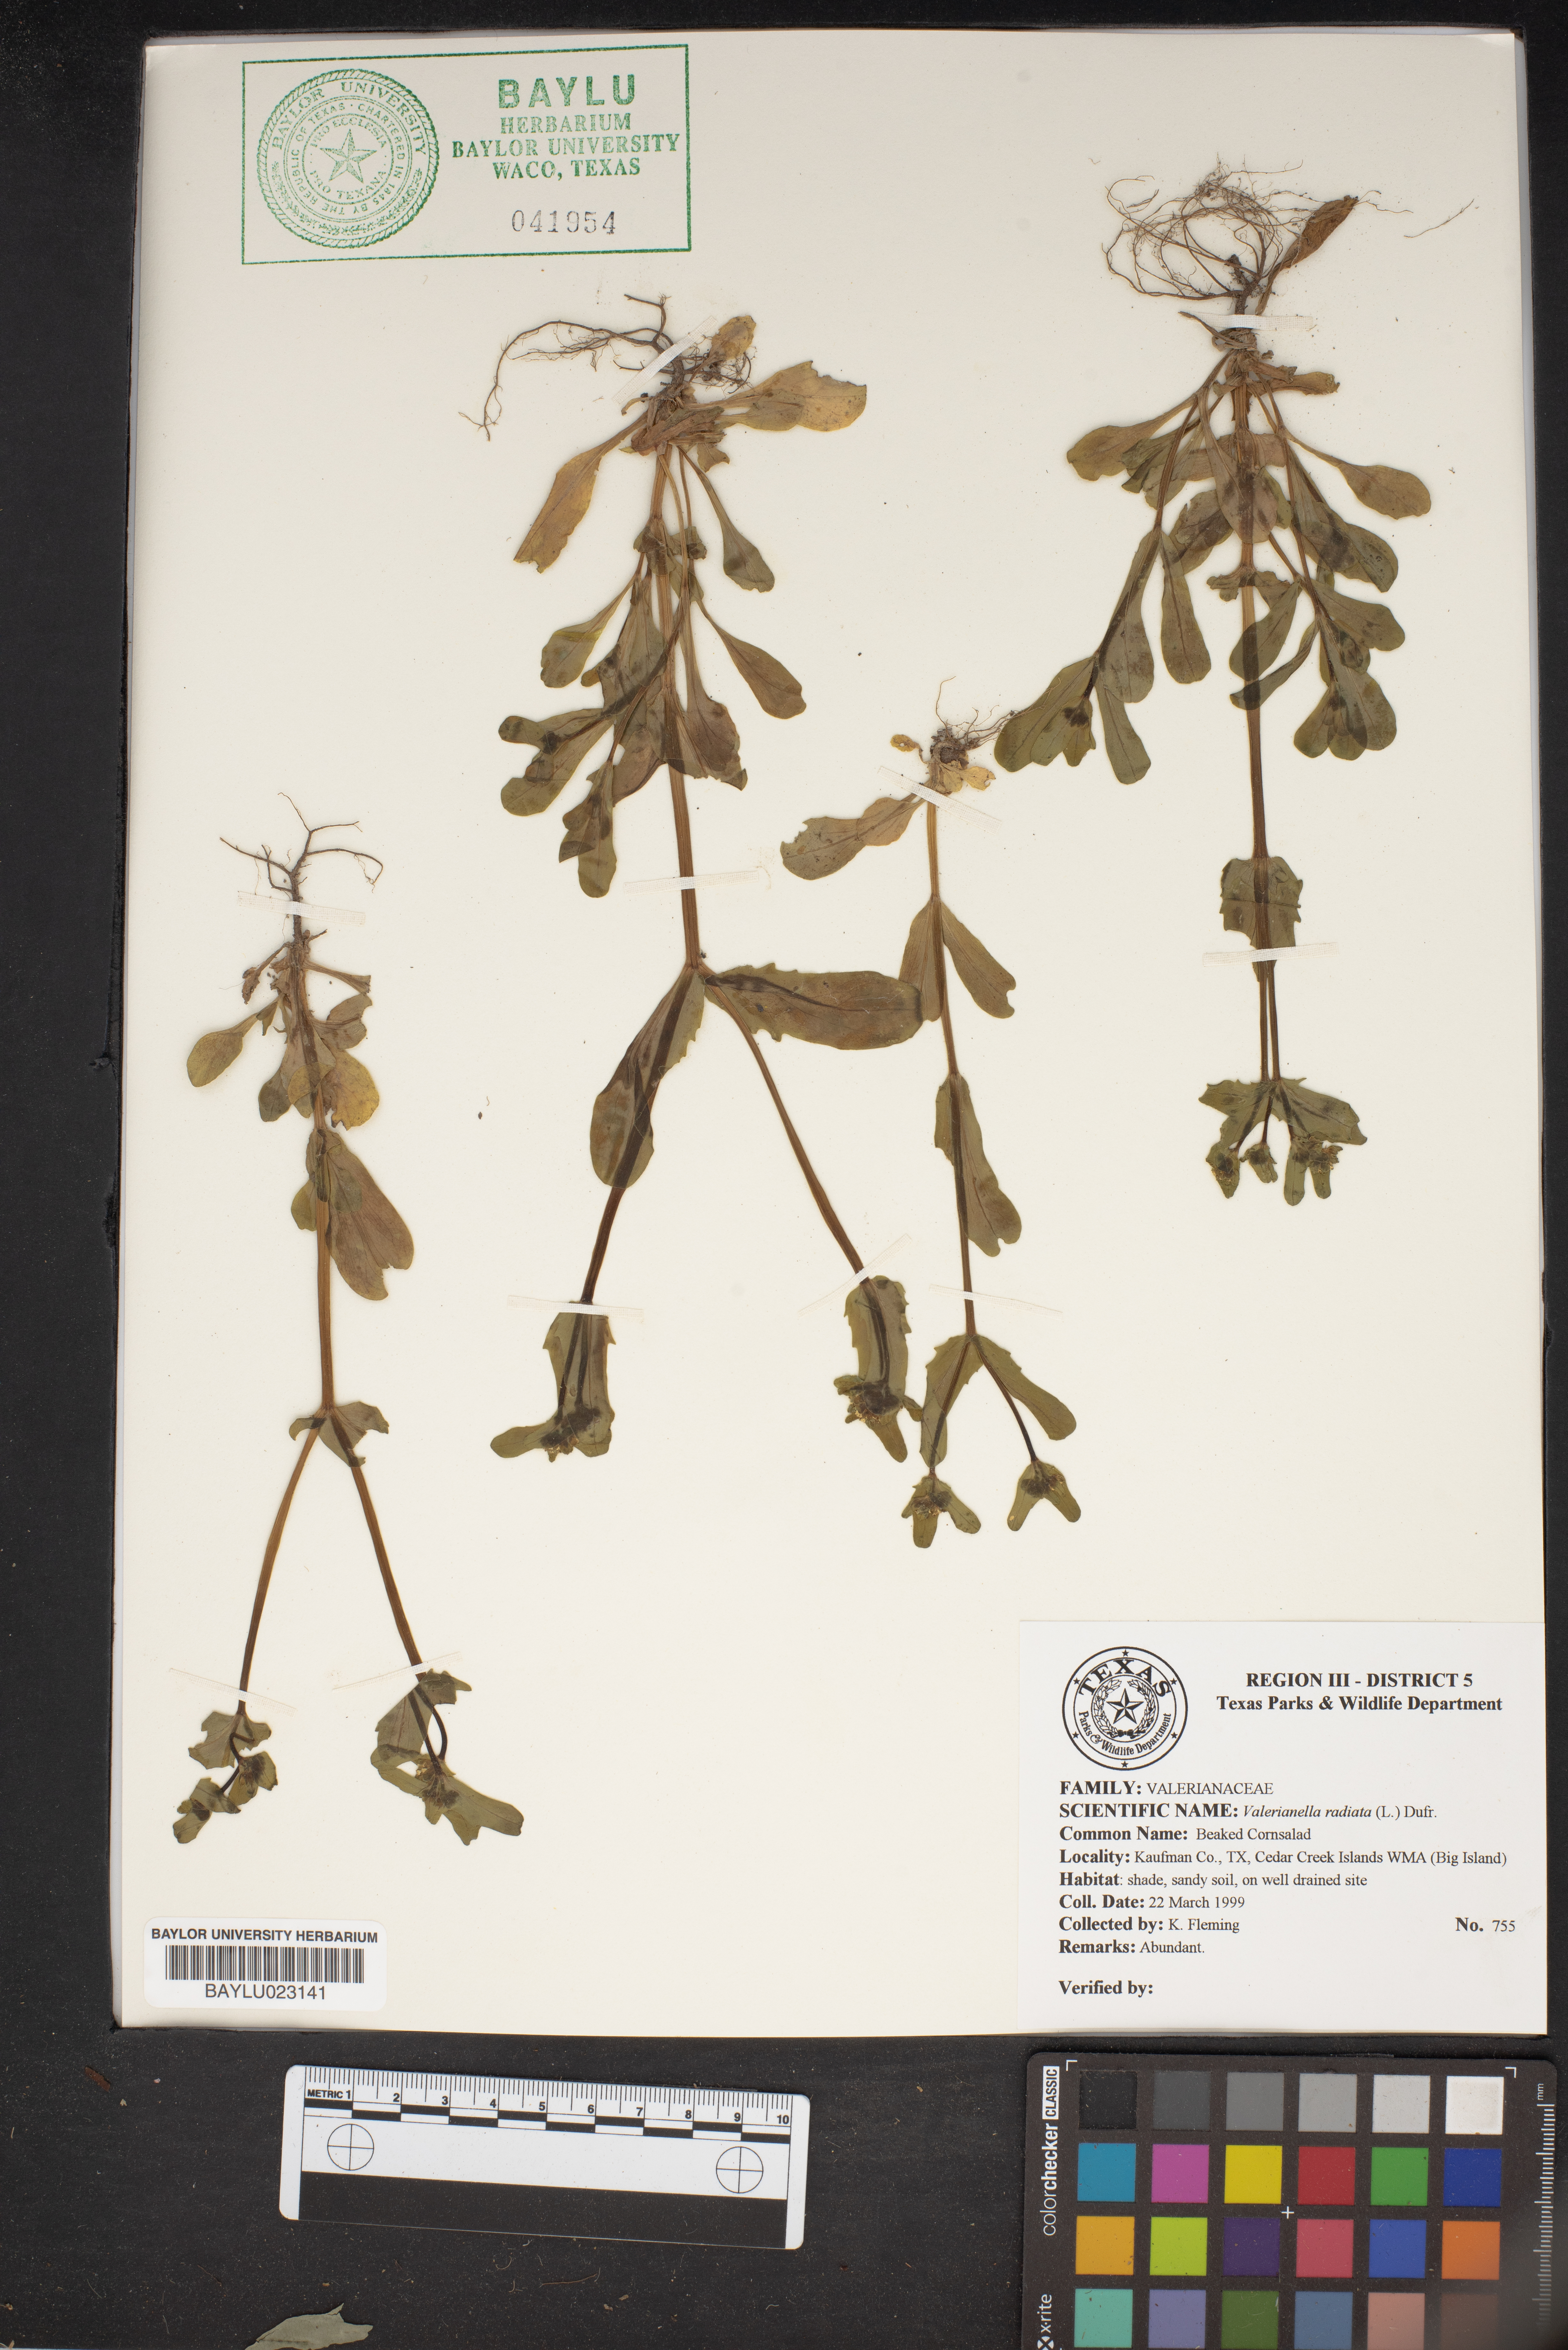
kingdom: Plantae
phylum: Tracheophyta
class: Magnoliopsida
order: Dipsacales
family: Caprifoliaceae
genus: Valerianella
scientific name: Valerianella radiata
